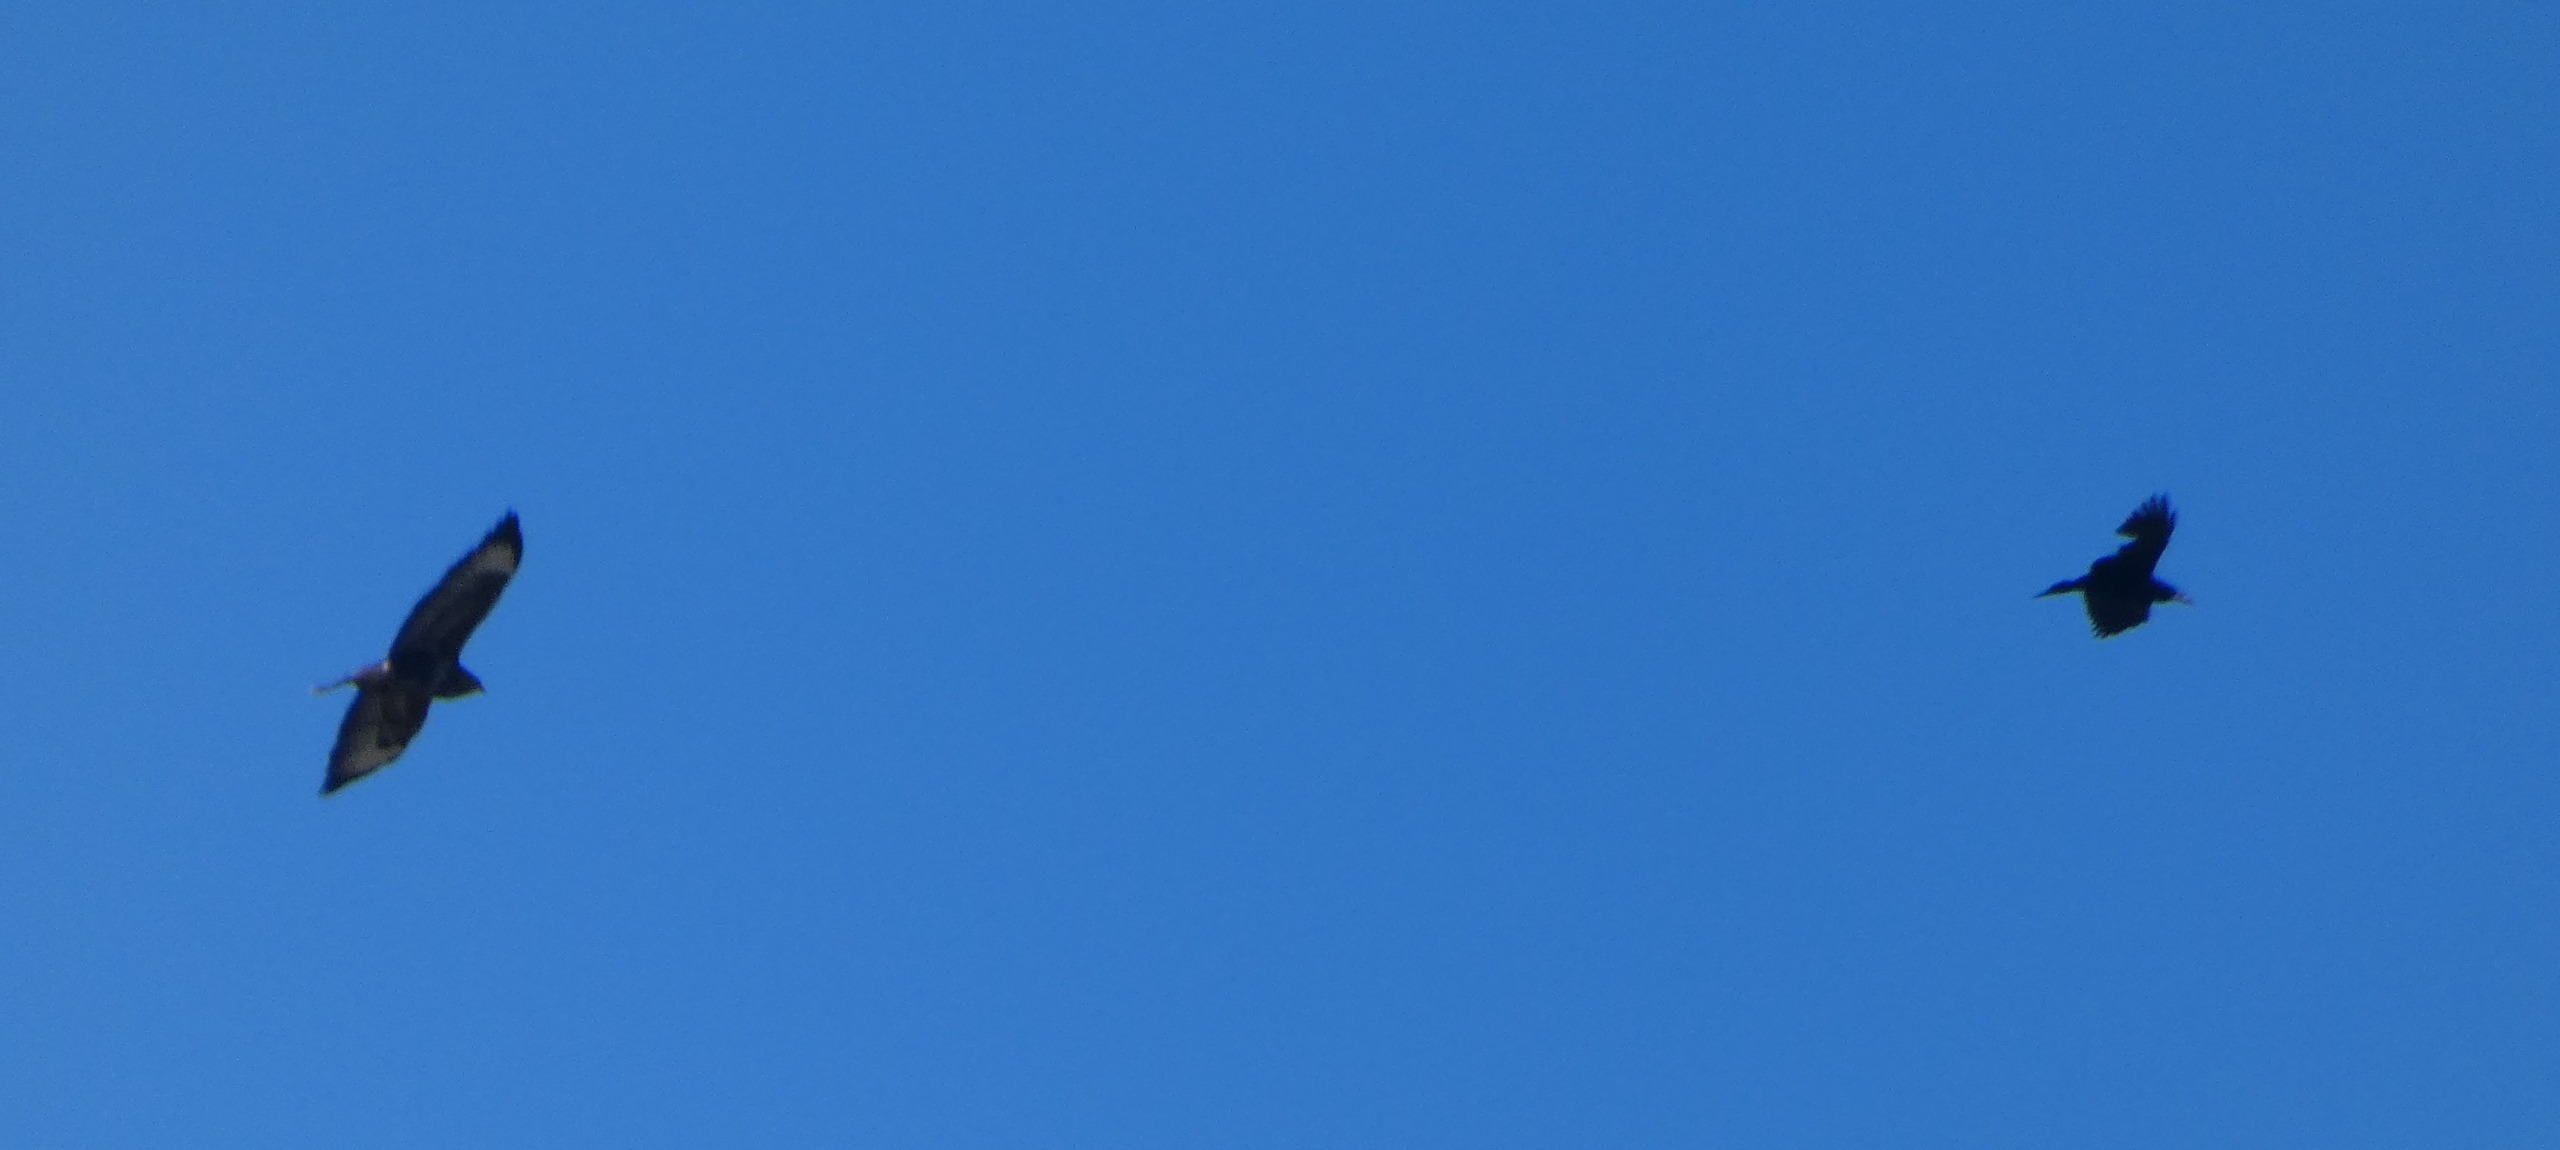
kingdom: Animalia
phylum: Chordata
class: Aves
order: Passeriformes
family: Corvidae
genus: Corvus
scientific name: Corvus frugilegus
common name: Råge
